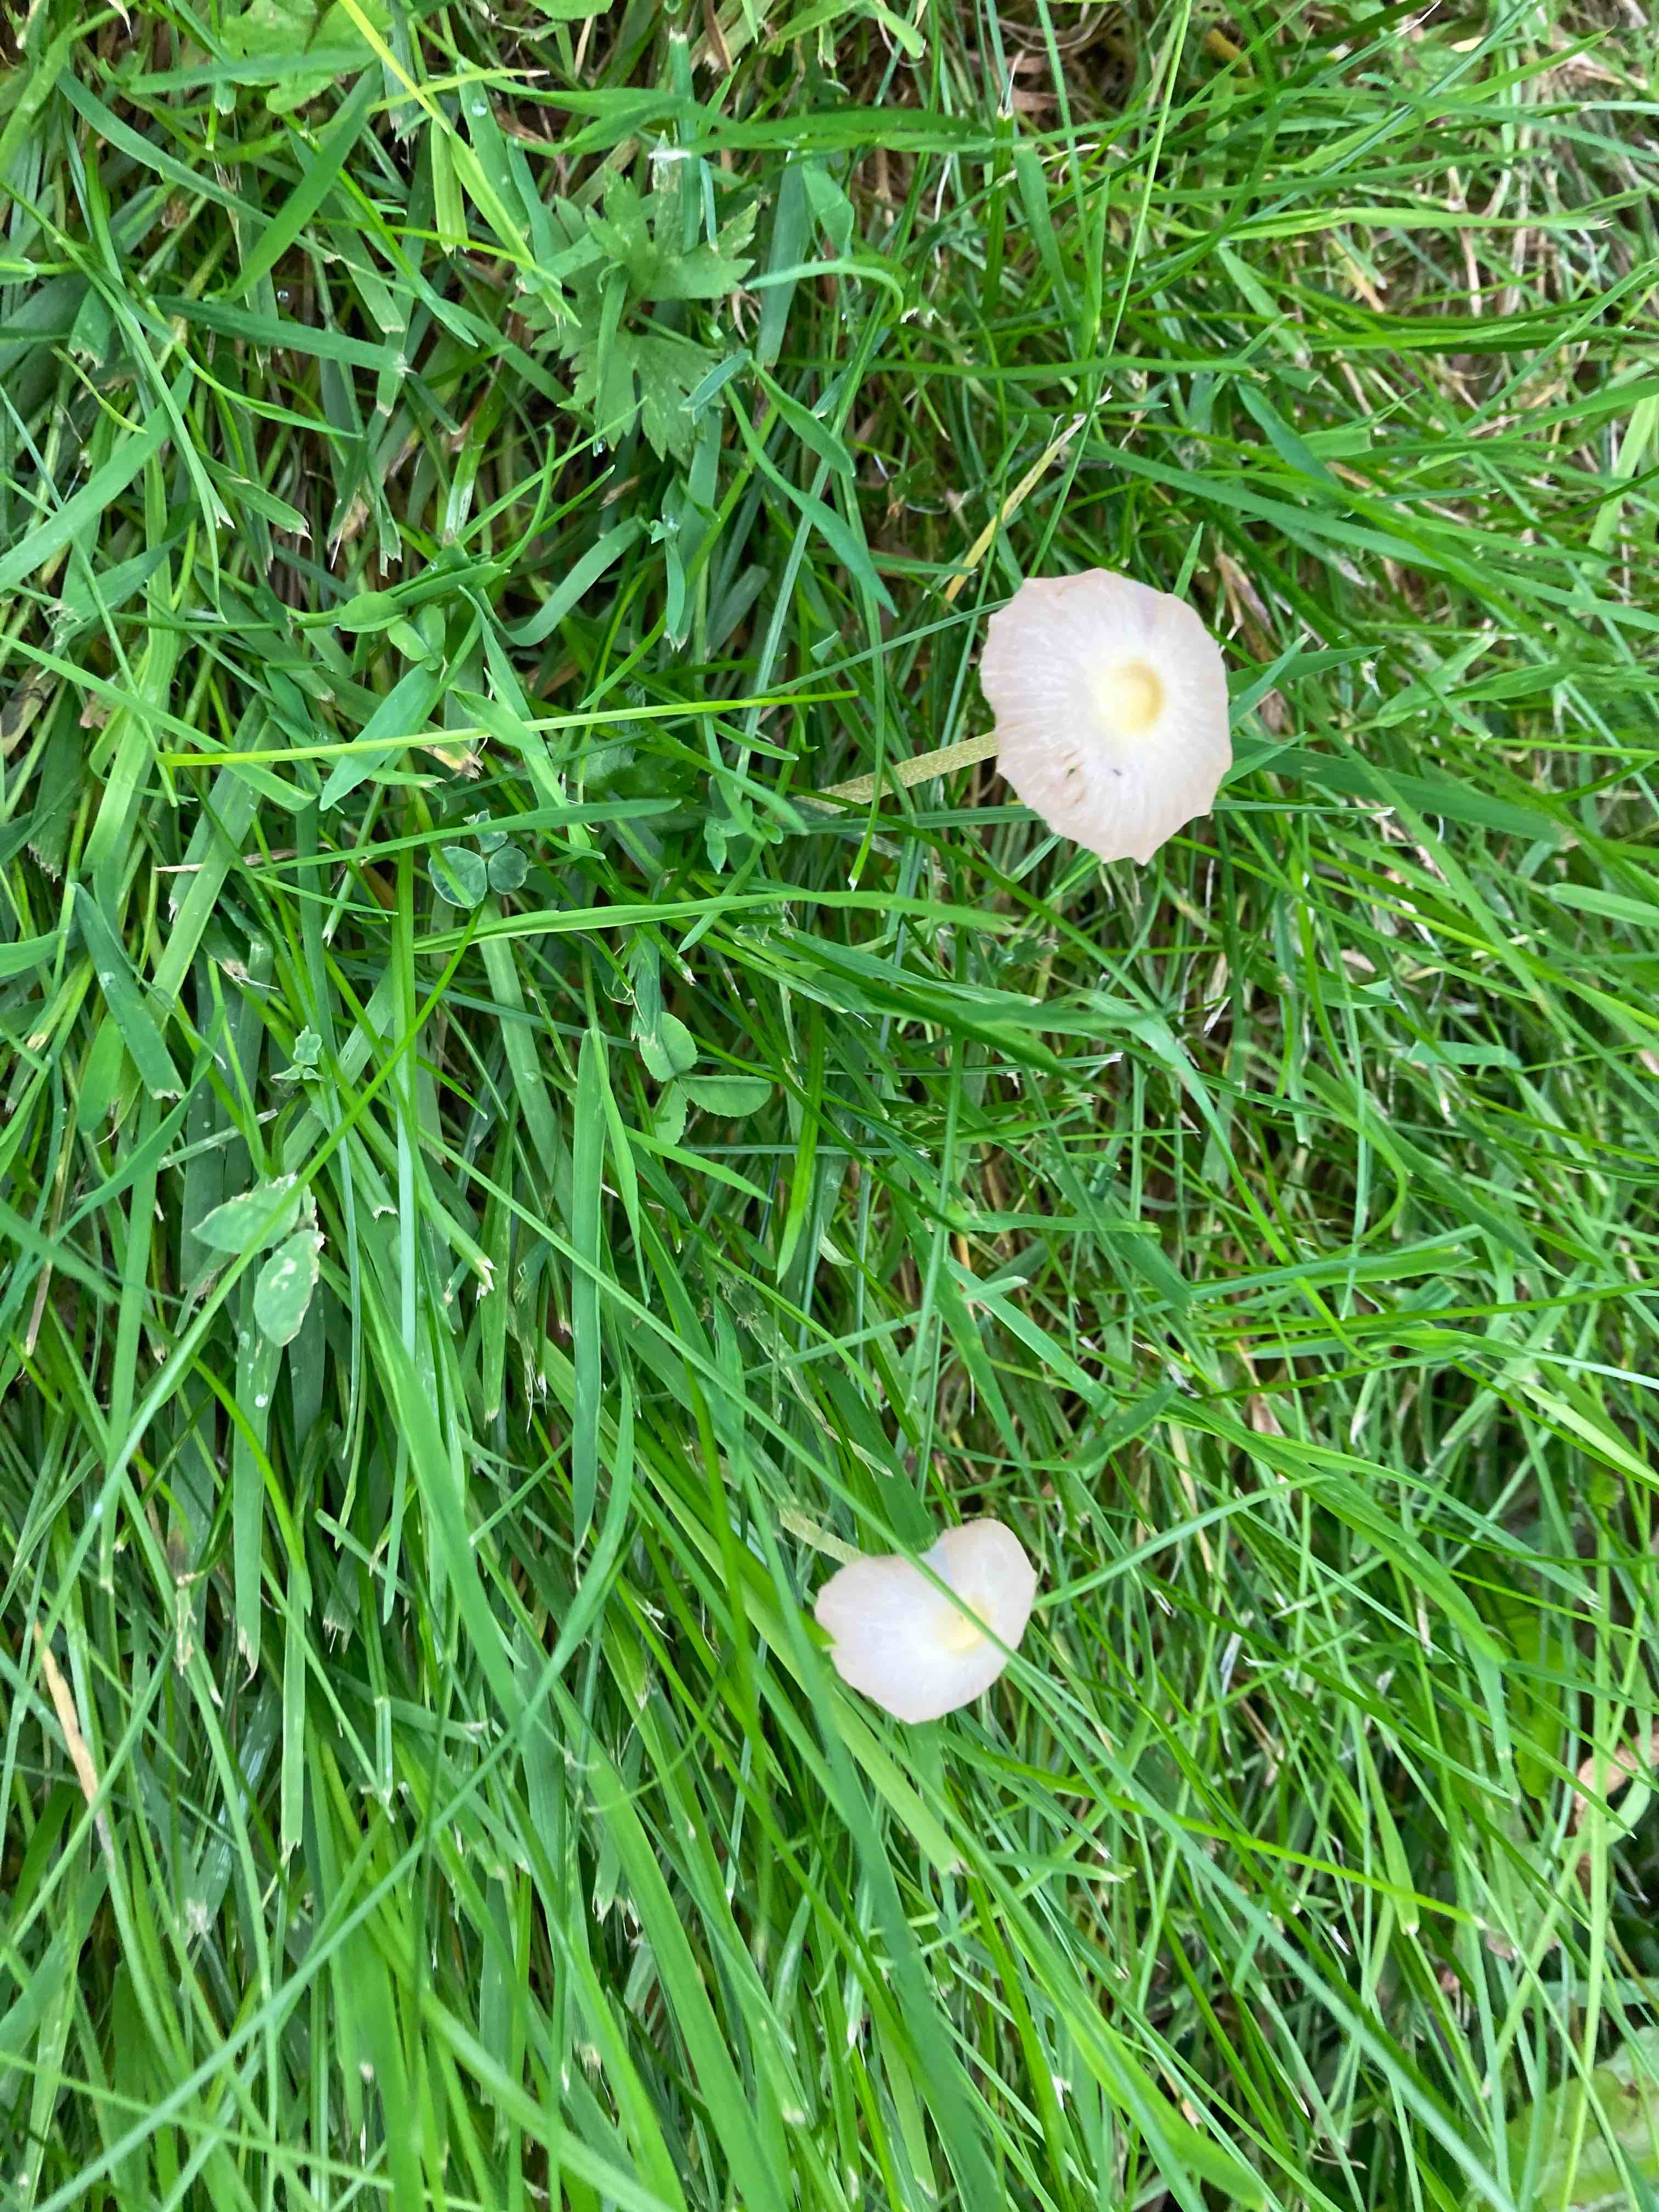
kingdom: Fungi
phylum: Basidiomycota
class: Agaricomycetes
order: Agaricales
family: Bolbitiaceae
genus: Bolbitius
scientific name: Bolbitius titubans
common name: almindelig gulhat
